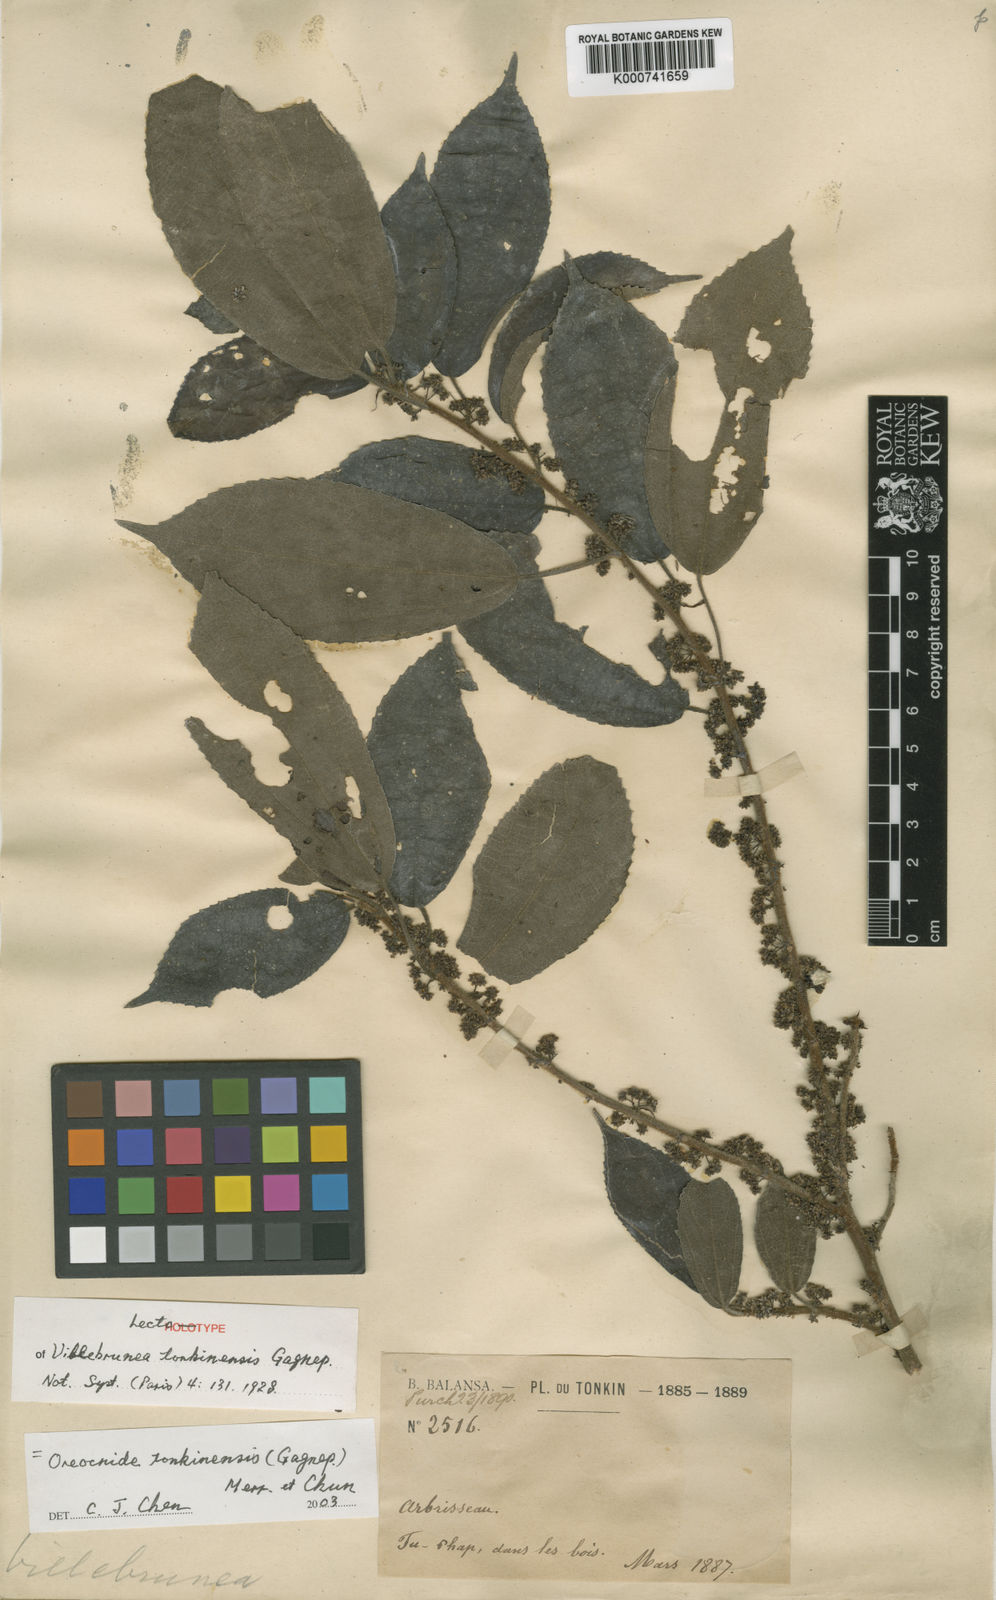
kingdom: Plantae
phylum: Tracheophyta
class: Magnoliopsida
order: Rosales
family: Urticaceae
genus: Oreocnide
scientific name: Oreocnide tonkinensis
